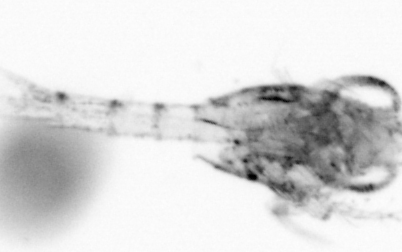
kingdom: Animalia
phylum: Arthropoda
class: Copepoda
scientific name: Copepoda
